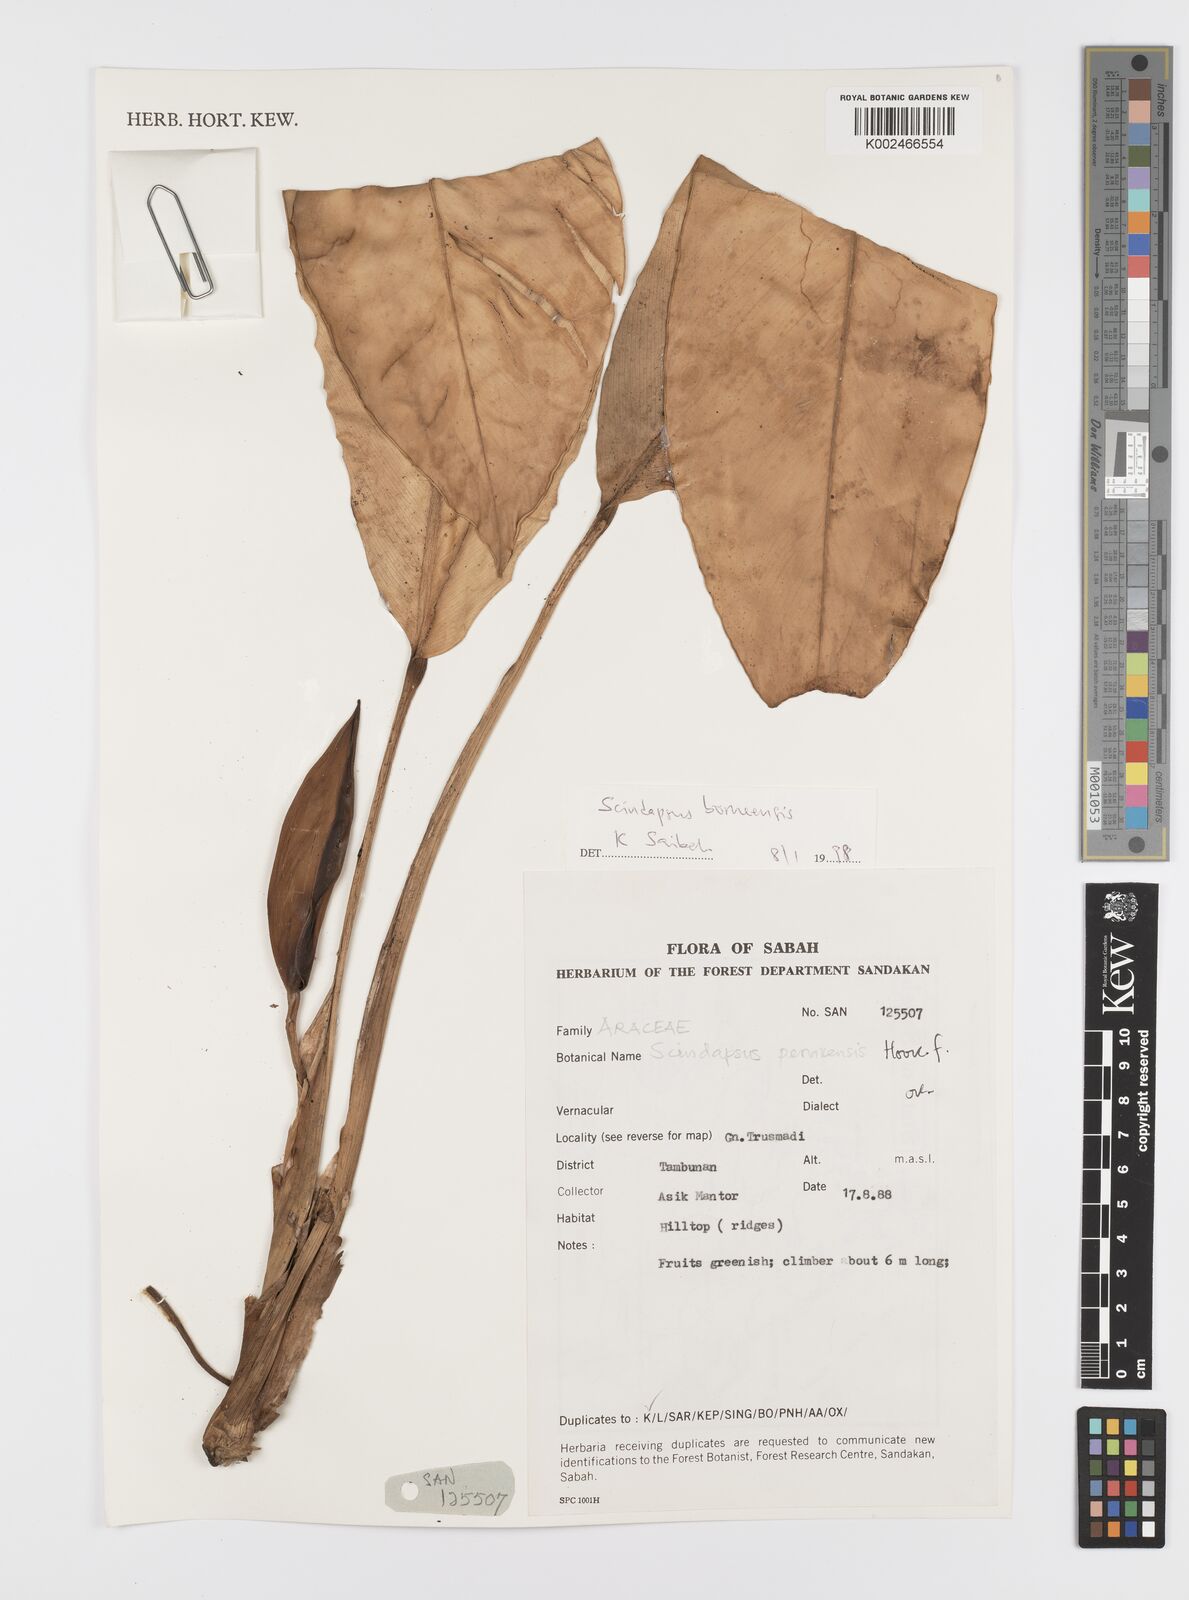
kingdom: Plantae
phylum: Tracheophyta
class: Liliopsida
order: Alismatales
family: Araceae
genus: Scindapsus
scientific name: Scindapsus coriaceus
